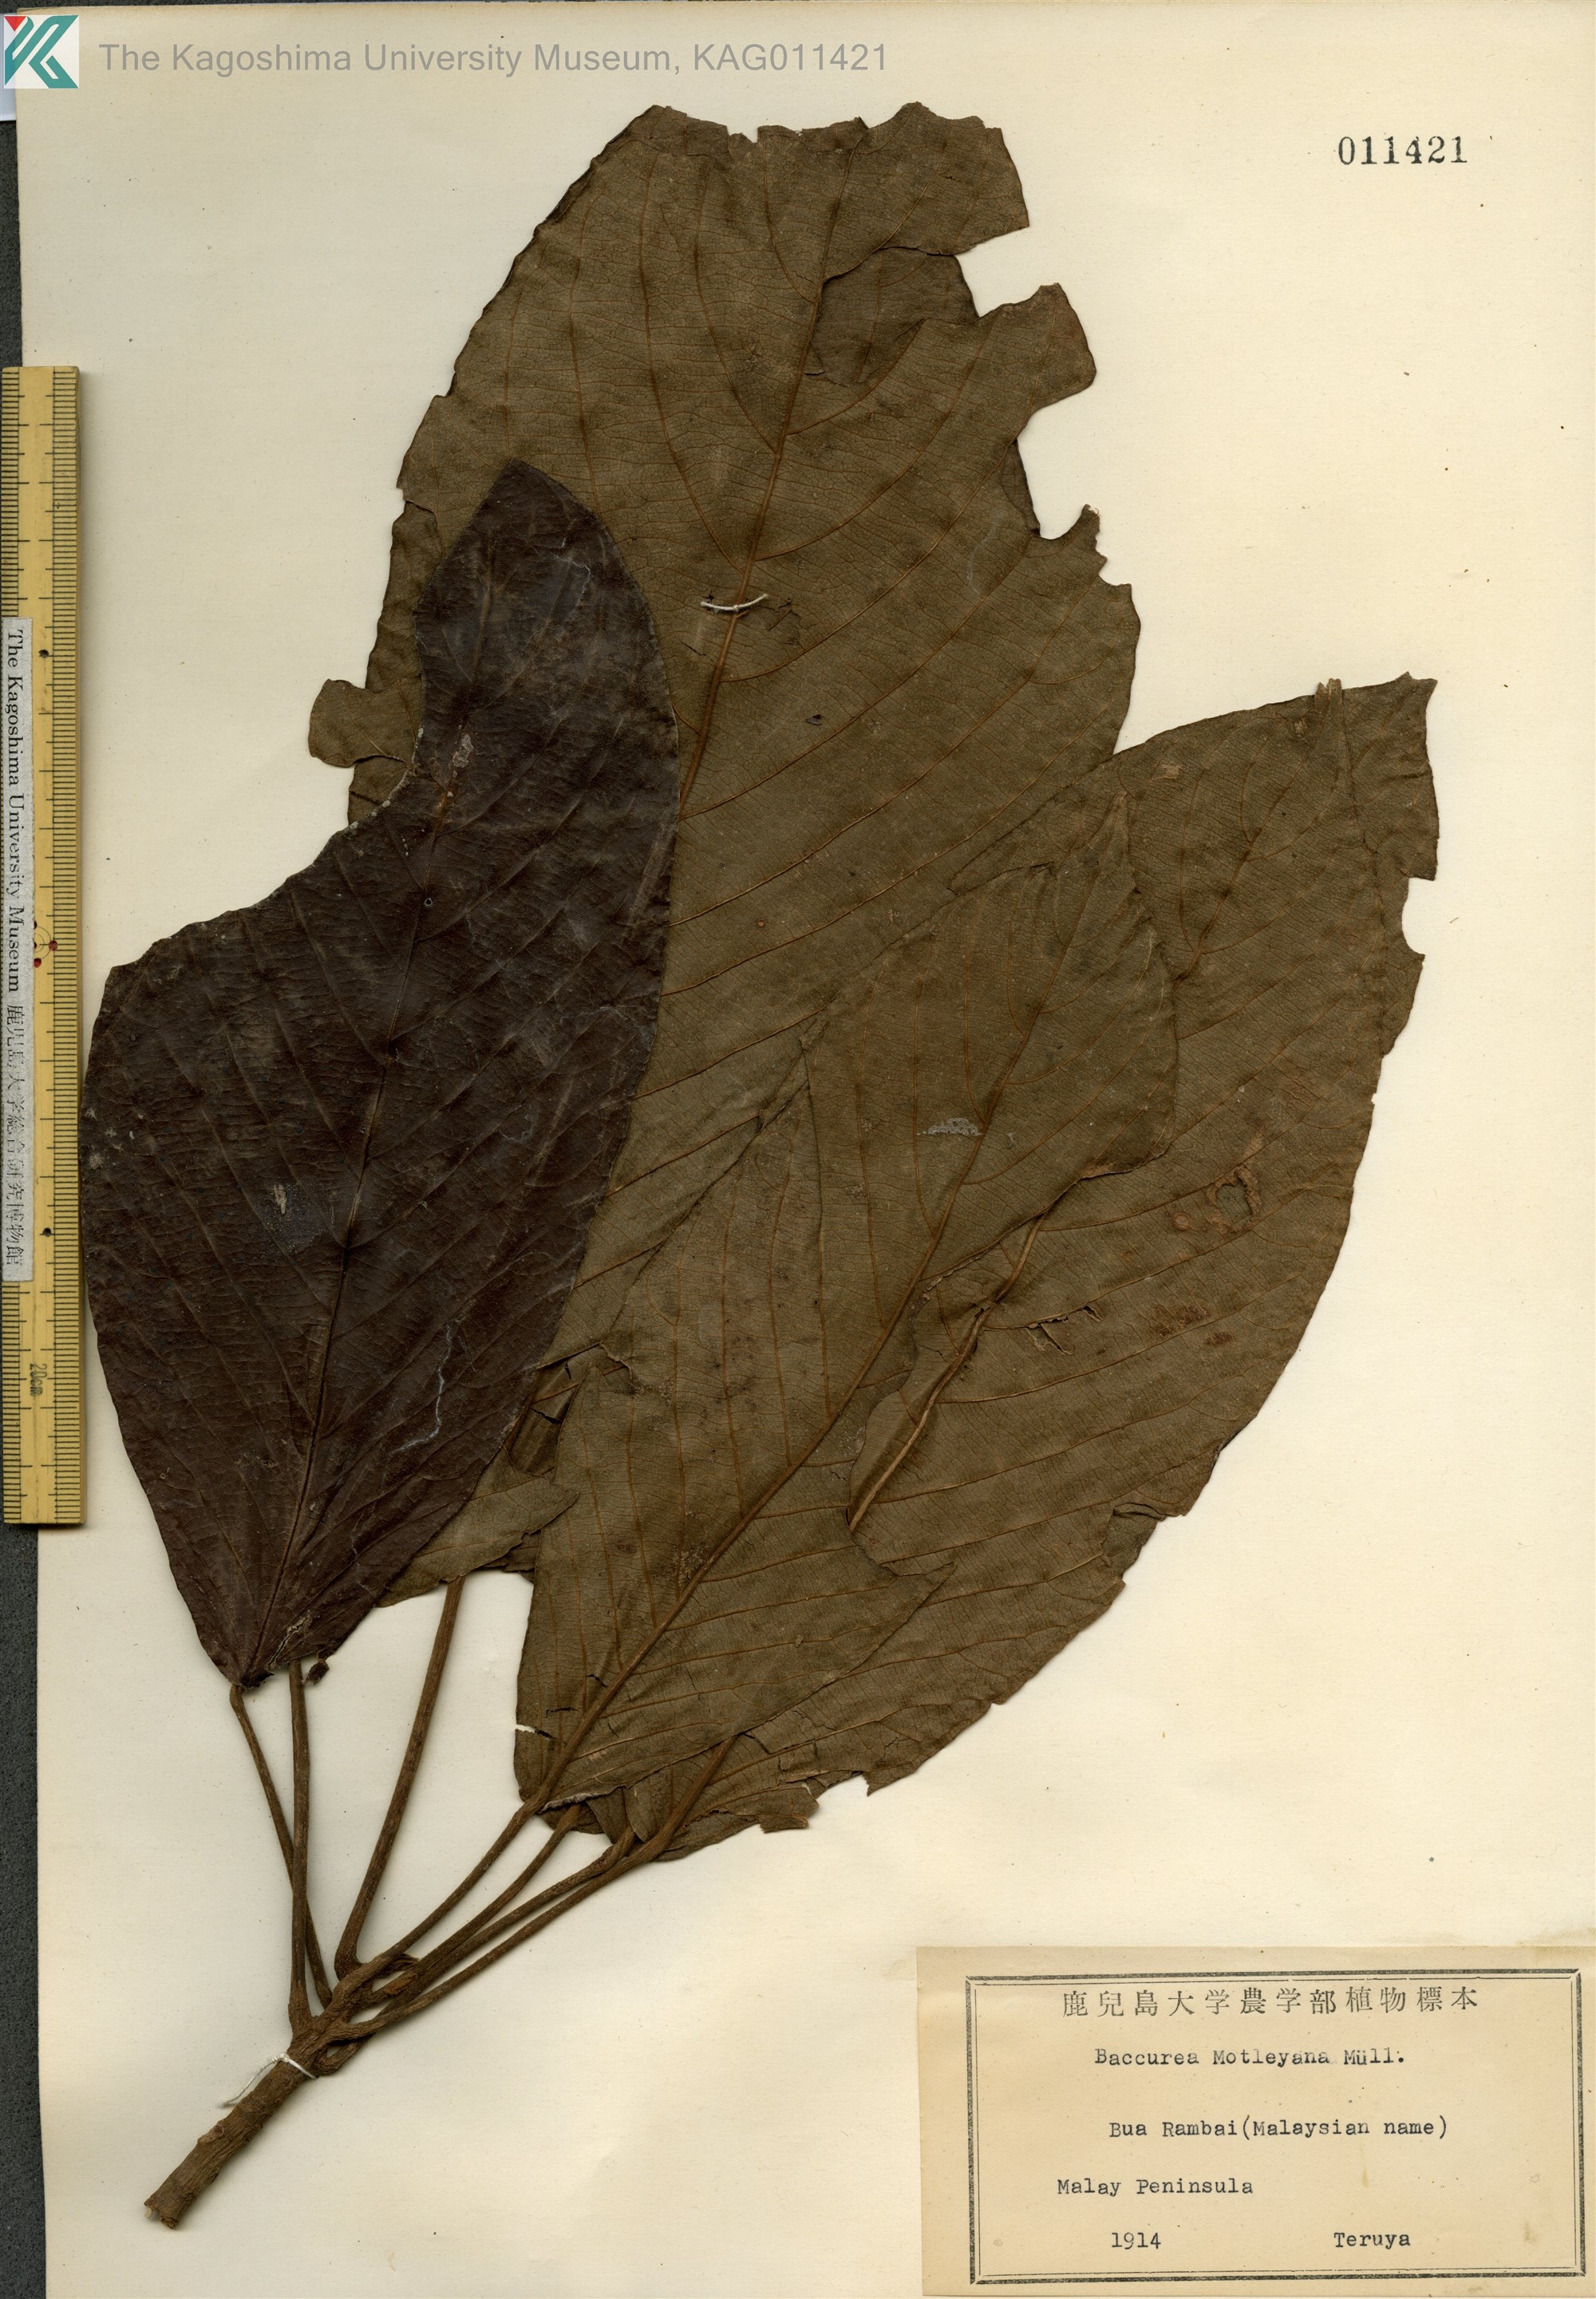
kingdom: Plantae
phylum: Tracheophyta
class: Magnoliopsida
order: Malpighiales
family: Phyllanthaceae
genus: Baccaurea
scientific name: Baccaurea motleyana
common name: Rambai
